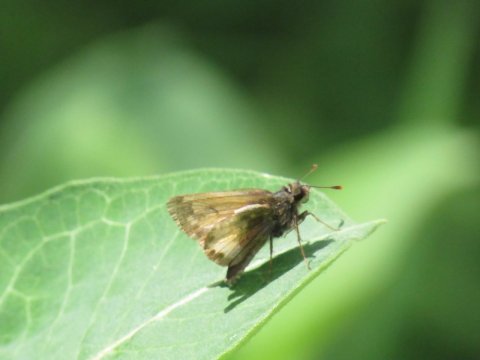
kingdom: Animalia
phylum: Arthropoda
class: Insecta
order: Lepidoptera
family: Hesperiidae
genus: Lon
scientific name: Lon hobomok
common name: Hobomok Skipper
